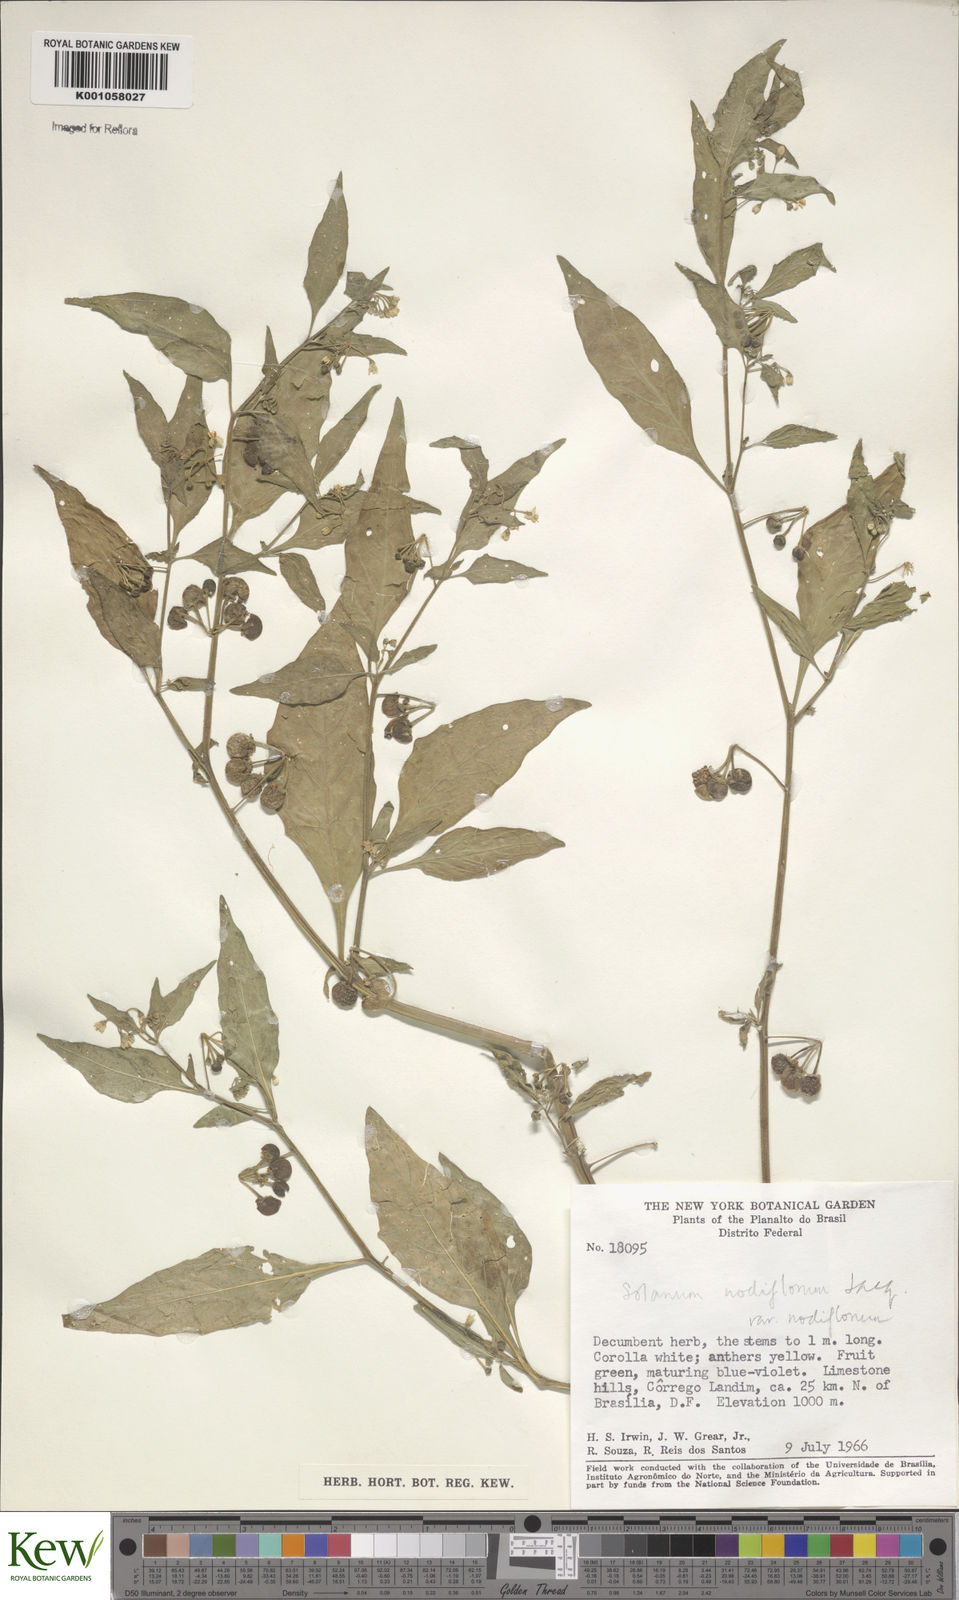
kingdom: Plantae
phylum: Tracheophyta
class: Magnoliopsida
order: Solanales
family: Solanaceae
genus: Solanum
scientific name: Solanum americanum
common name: American black nightshade
